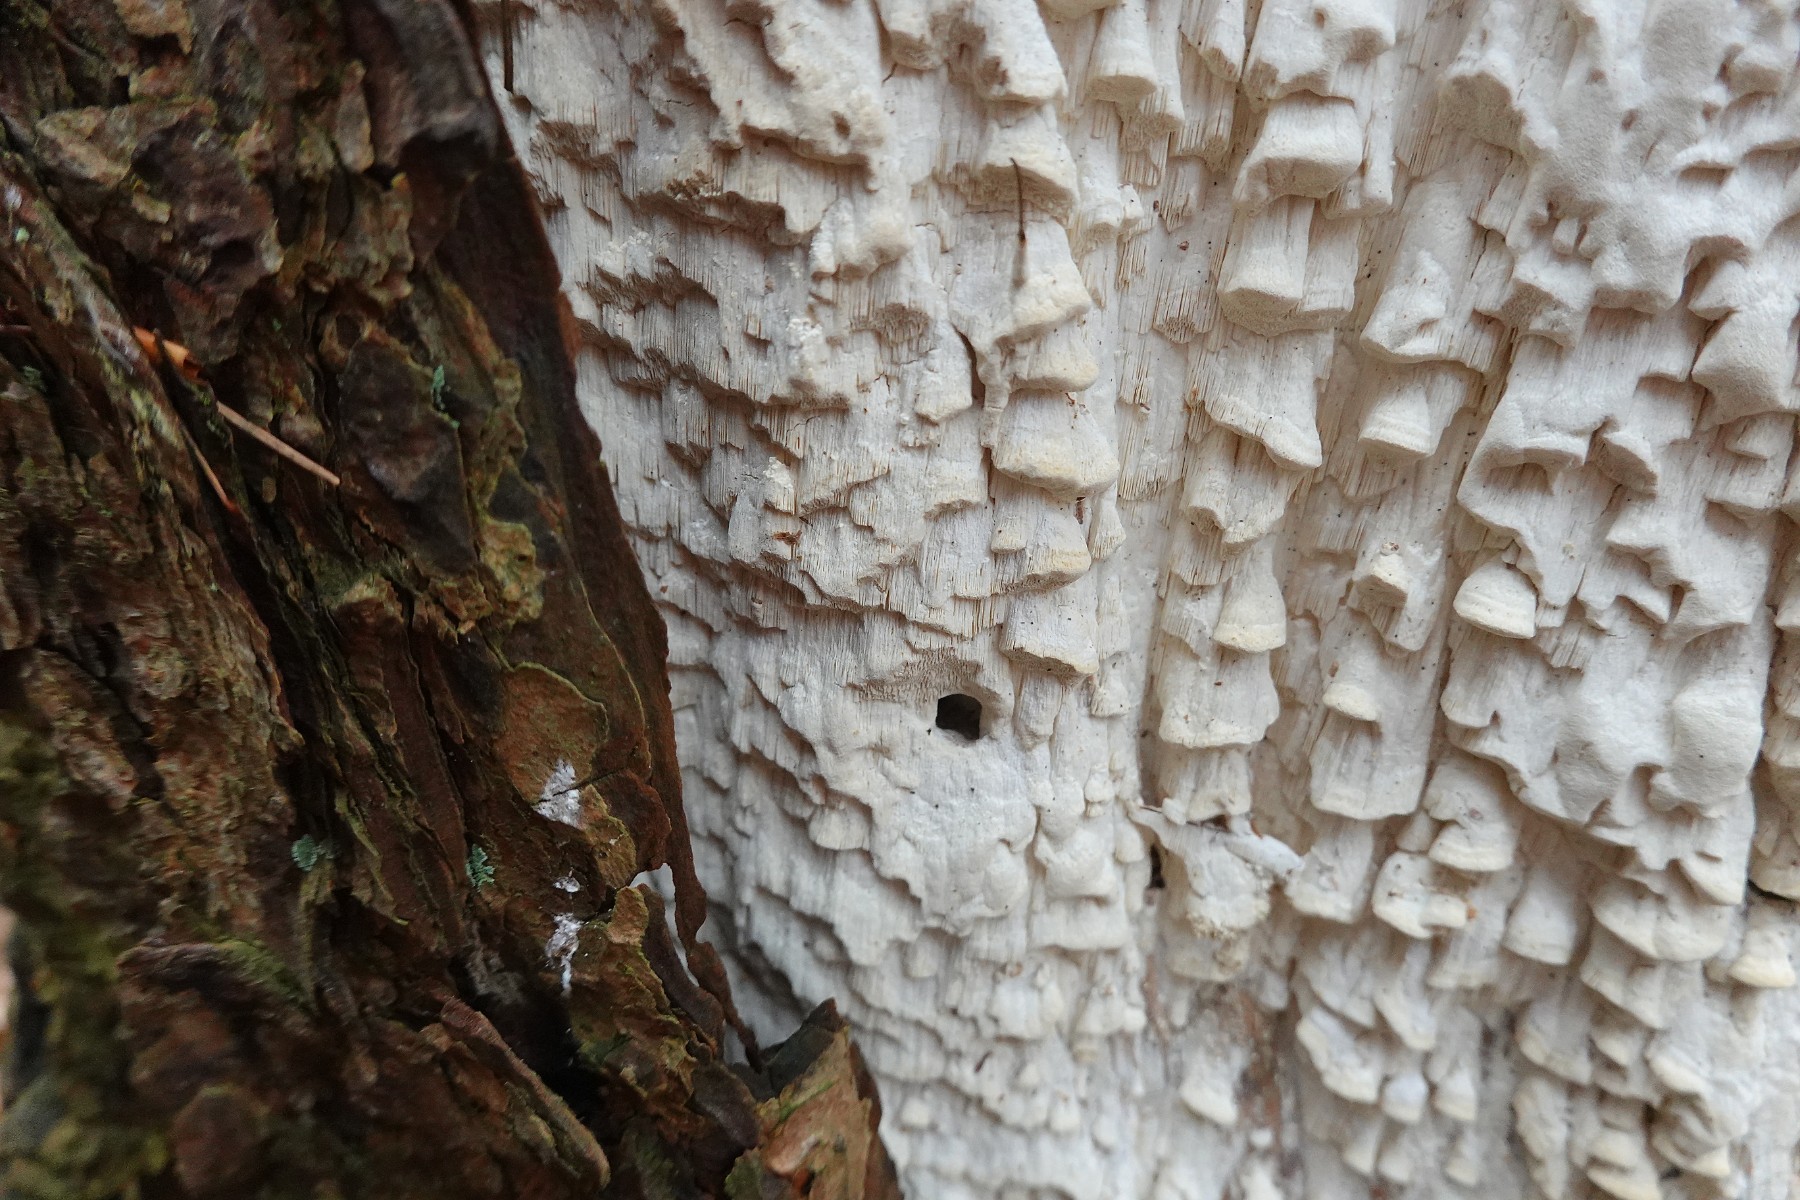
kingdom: Fungi
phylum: Basidiomycota
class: Agaricomycetes
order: Polyporales
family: Fomitopsidaceae
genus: Daedalea
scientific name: Daedalea xantha
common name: gul sejporesvamp
